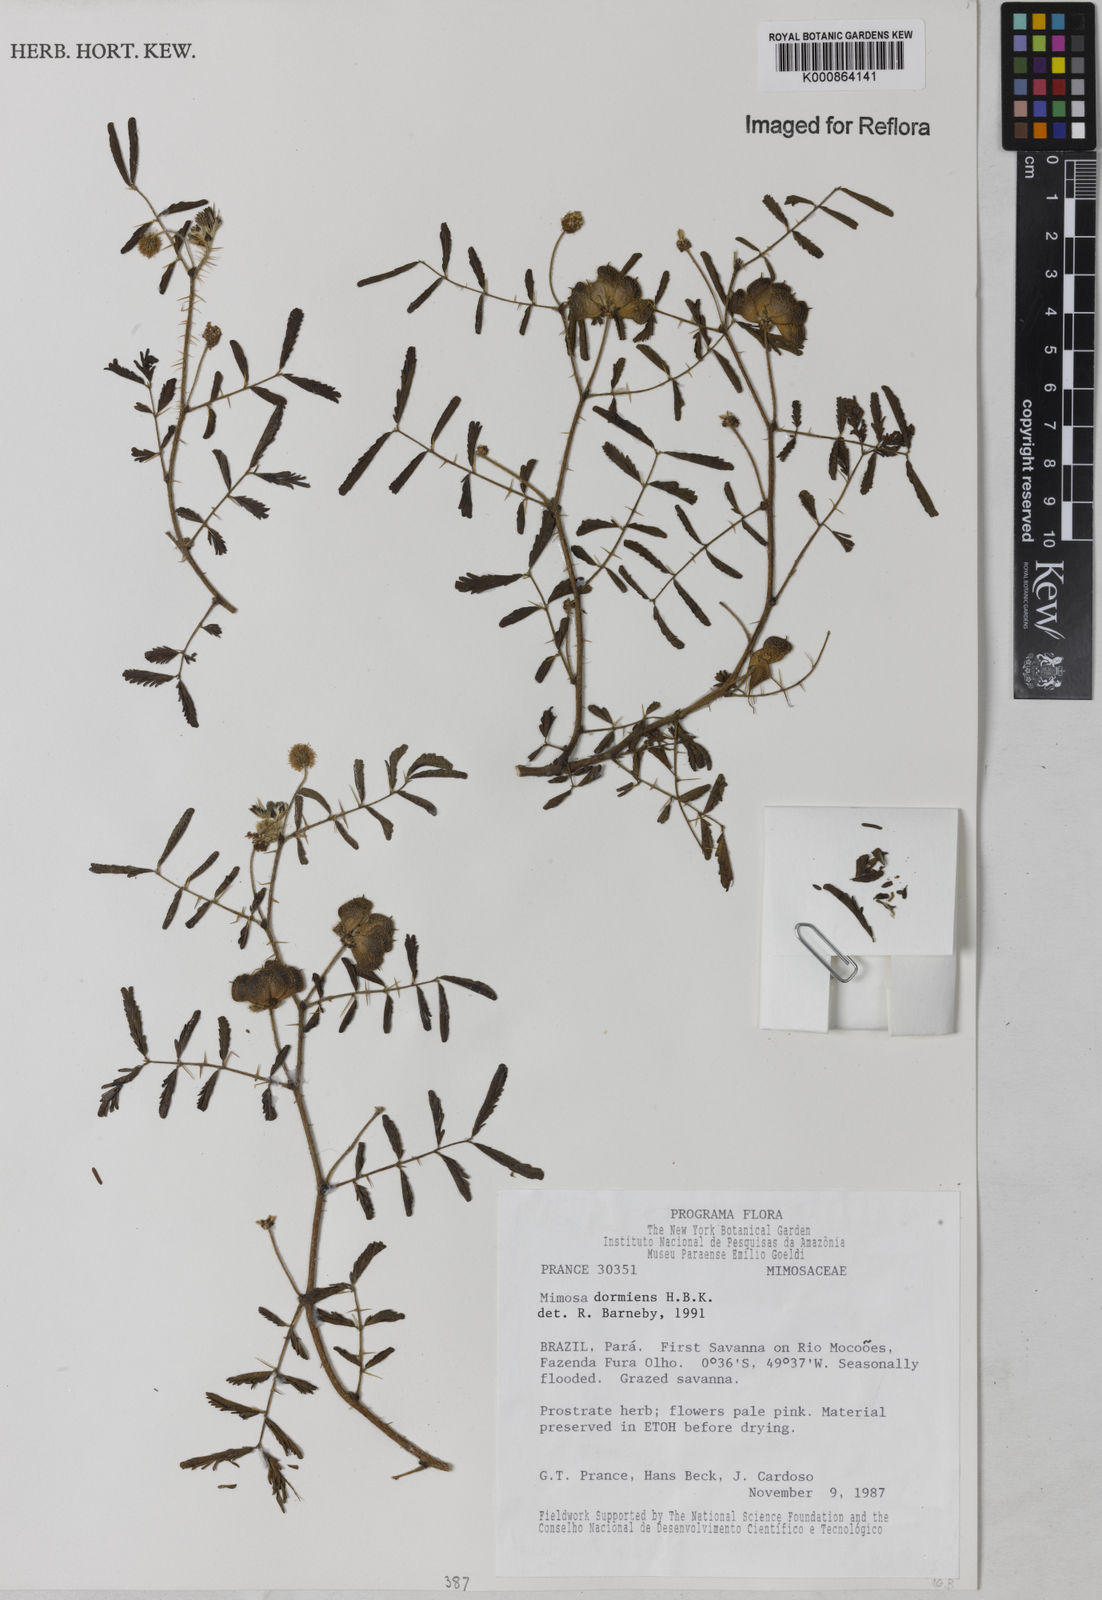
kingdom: Plantae
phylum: Tracheophyta
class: Magnoliopsida
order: Fabales
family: Fabaceae
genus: Mimosa
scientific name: Mimosa
